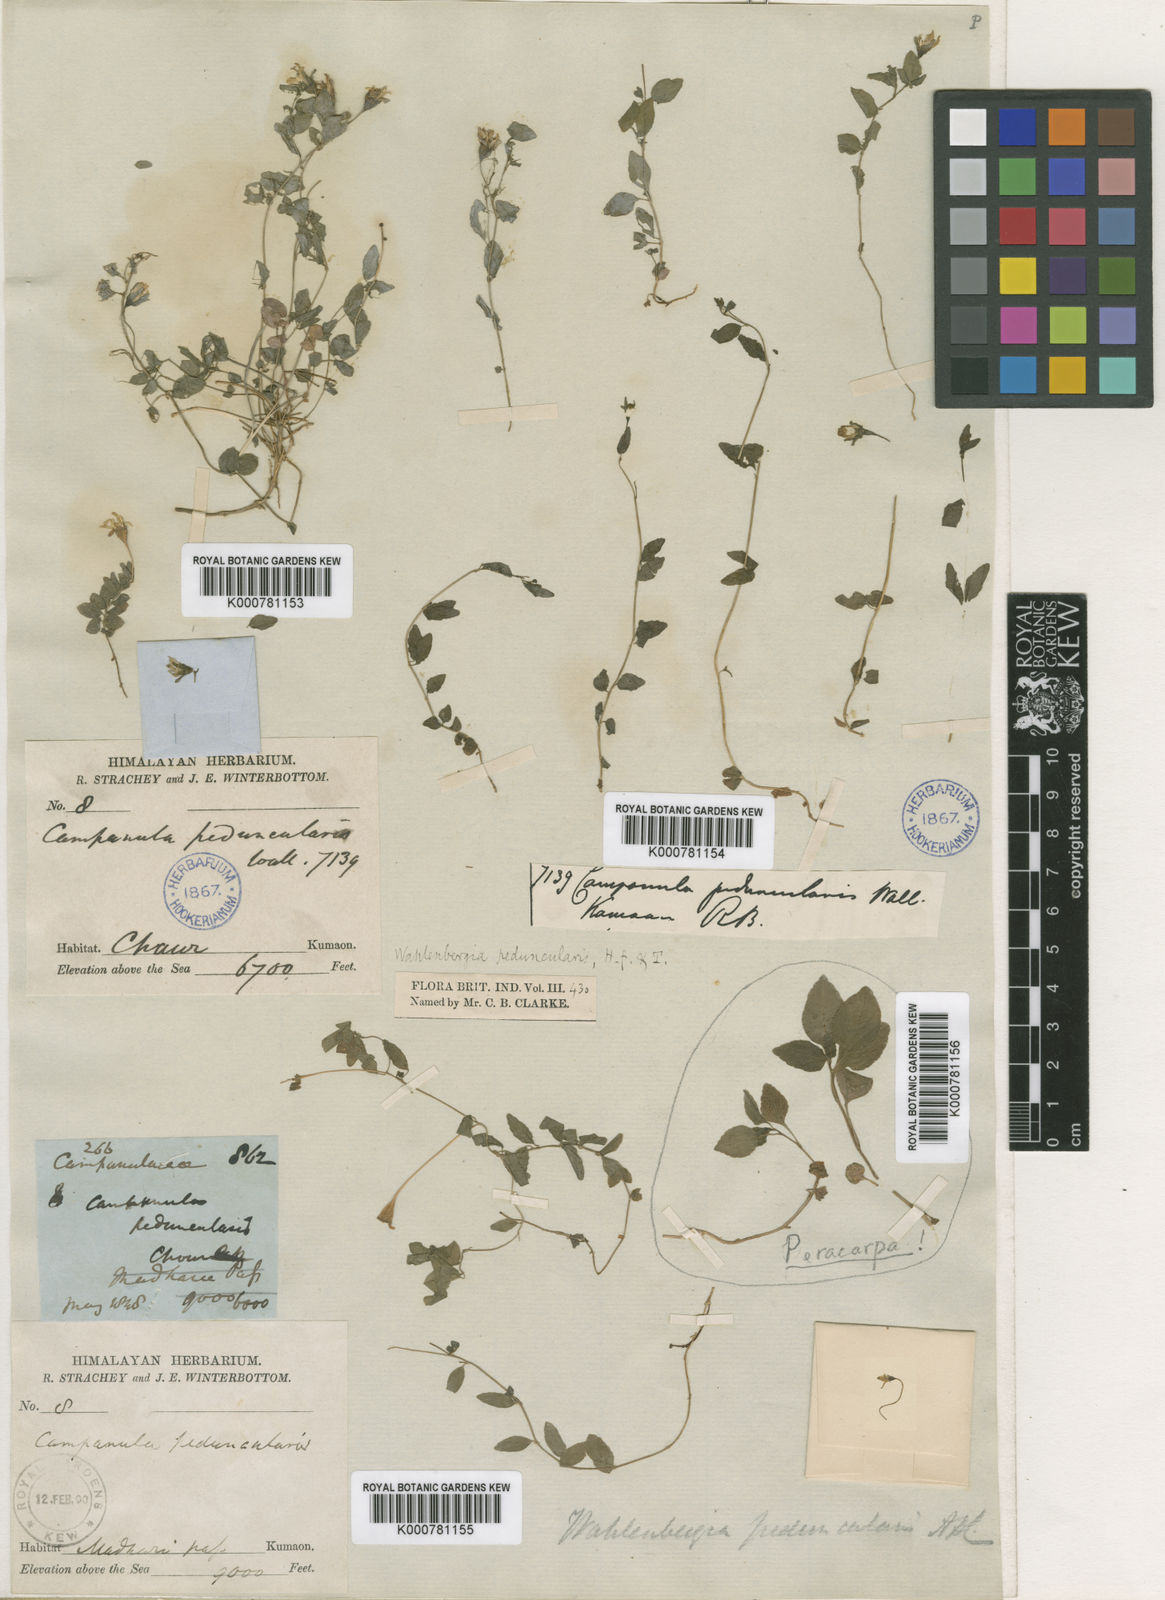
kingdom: Plantae
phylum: Tracheophyta
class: Magnoliopsida
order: Asterales
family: Campanulaceae
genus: Wahlenbergia
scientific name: Wahlenbergia peduncularis
